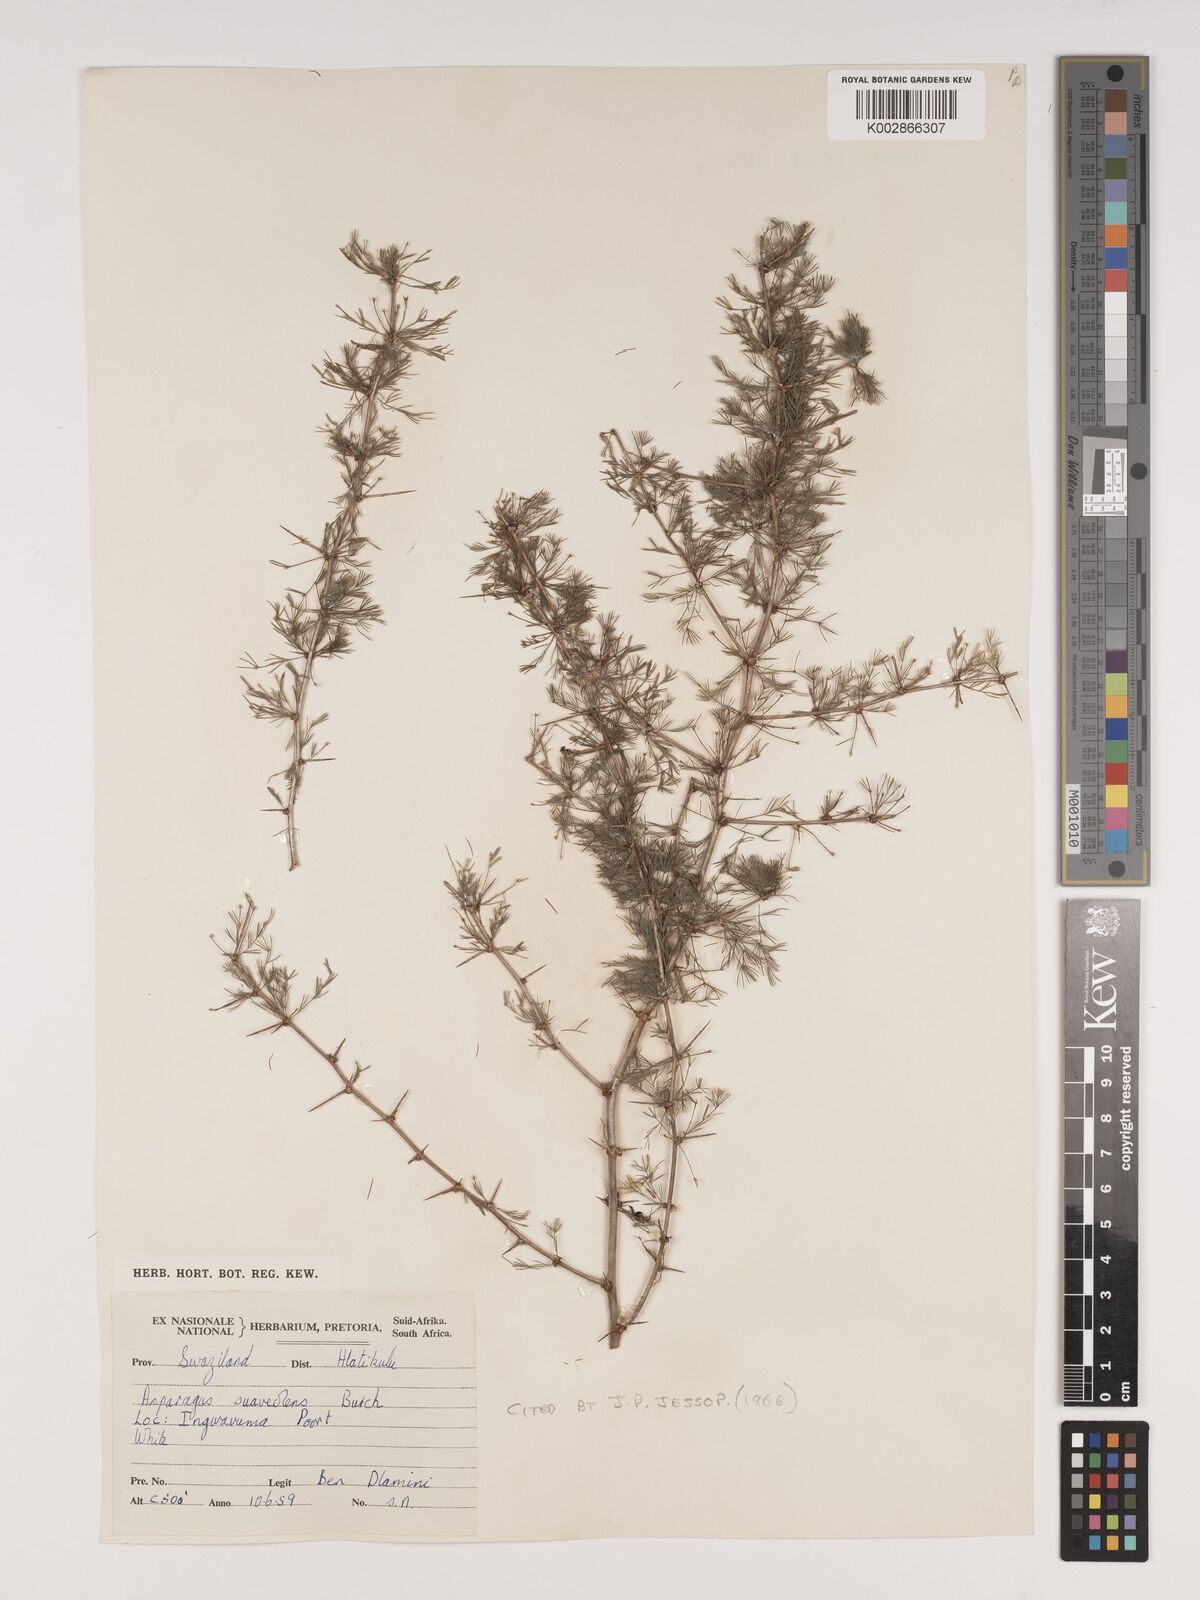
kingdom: Plantae
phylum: Tracheophyta
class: Liliopsida
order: Asparagales
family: Asparagaceae
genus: Asparagus
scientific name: Asparagus suaveolens
